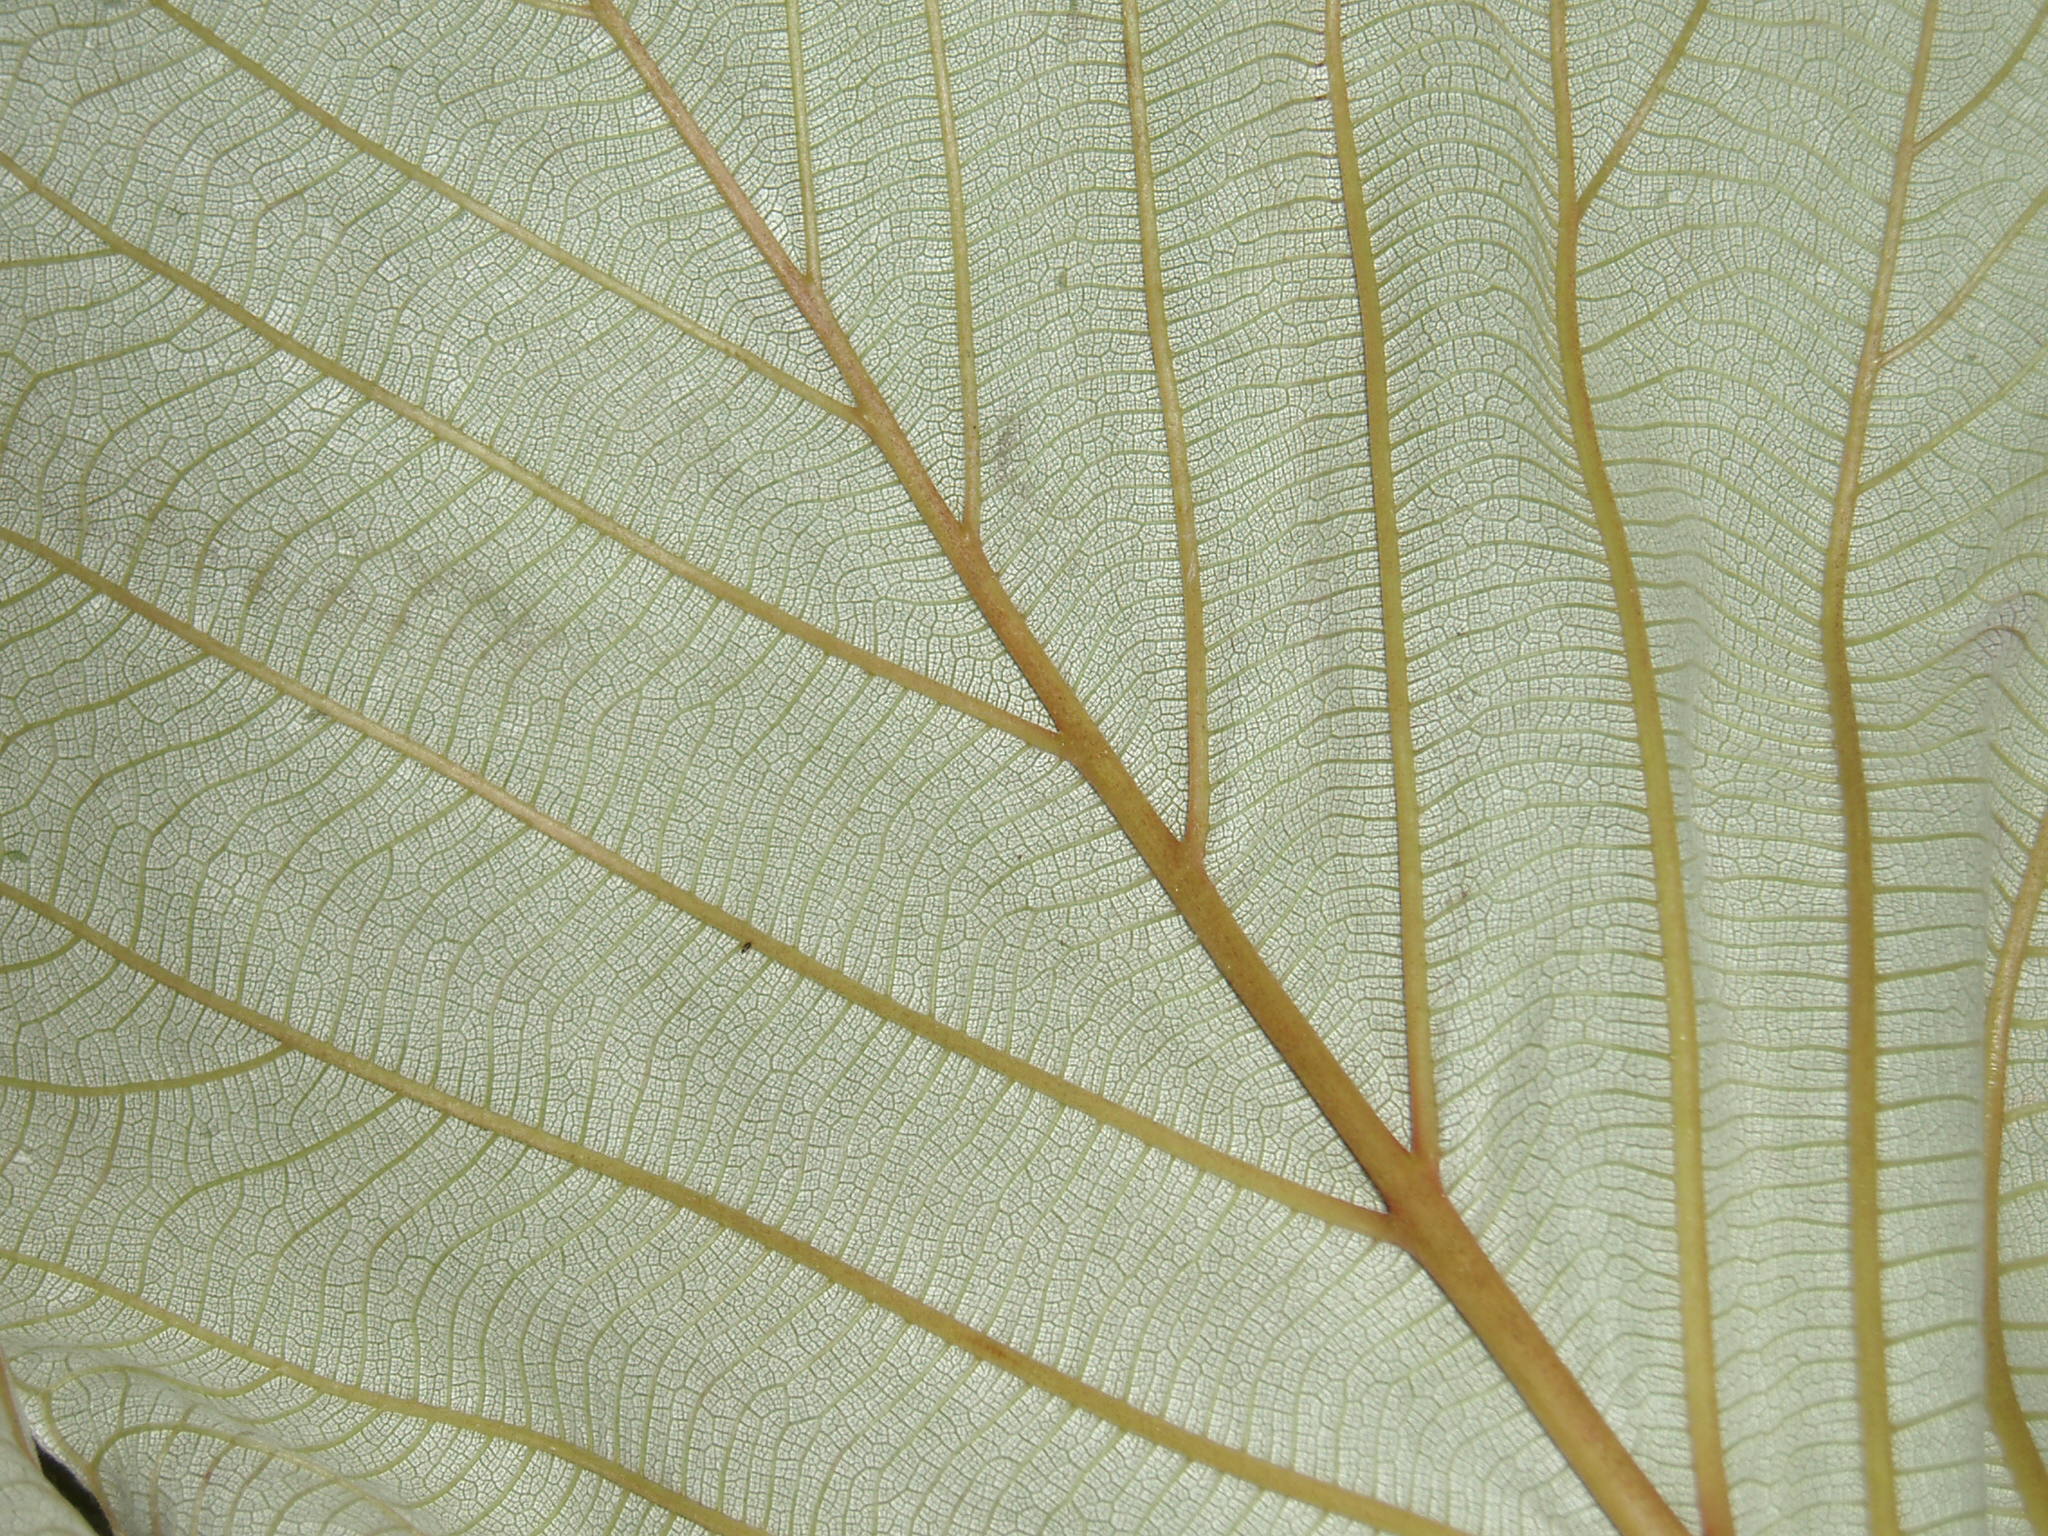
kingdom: Plantae
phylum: Tracheophyta
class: Magnoliopsida
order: Rosales
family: Urticaceae
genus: Cecropia
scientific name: Cecropia gabrielis
